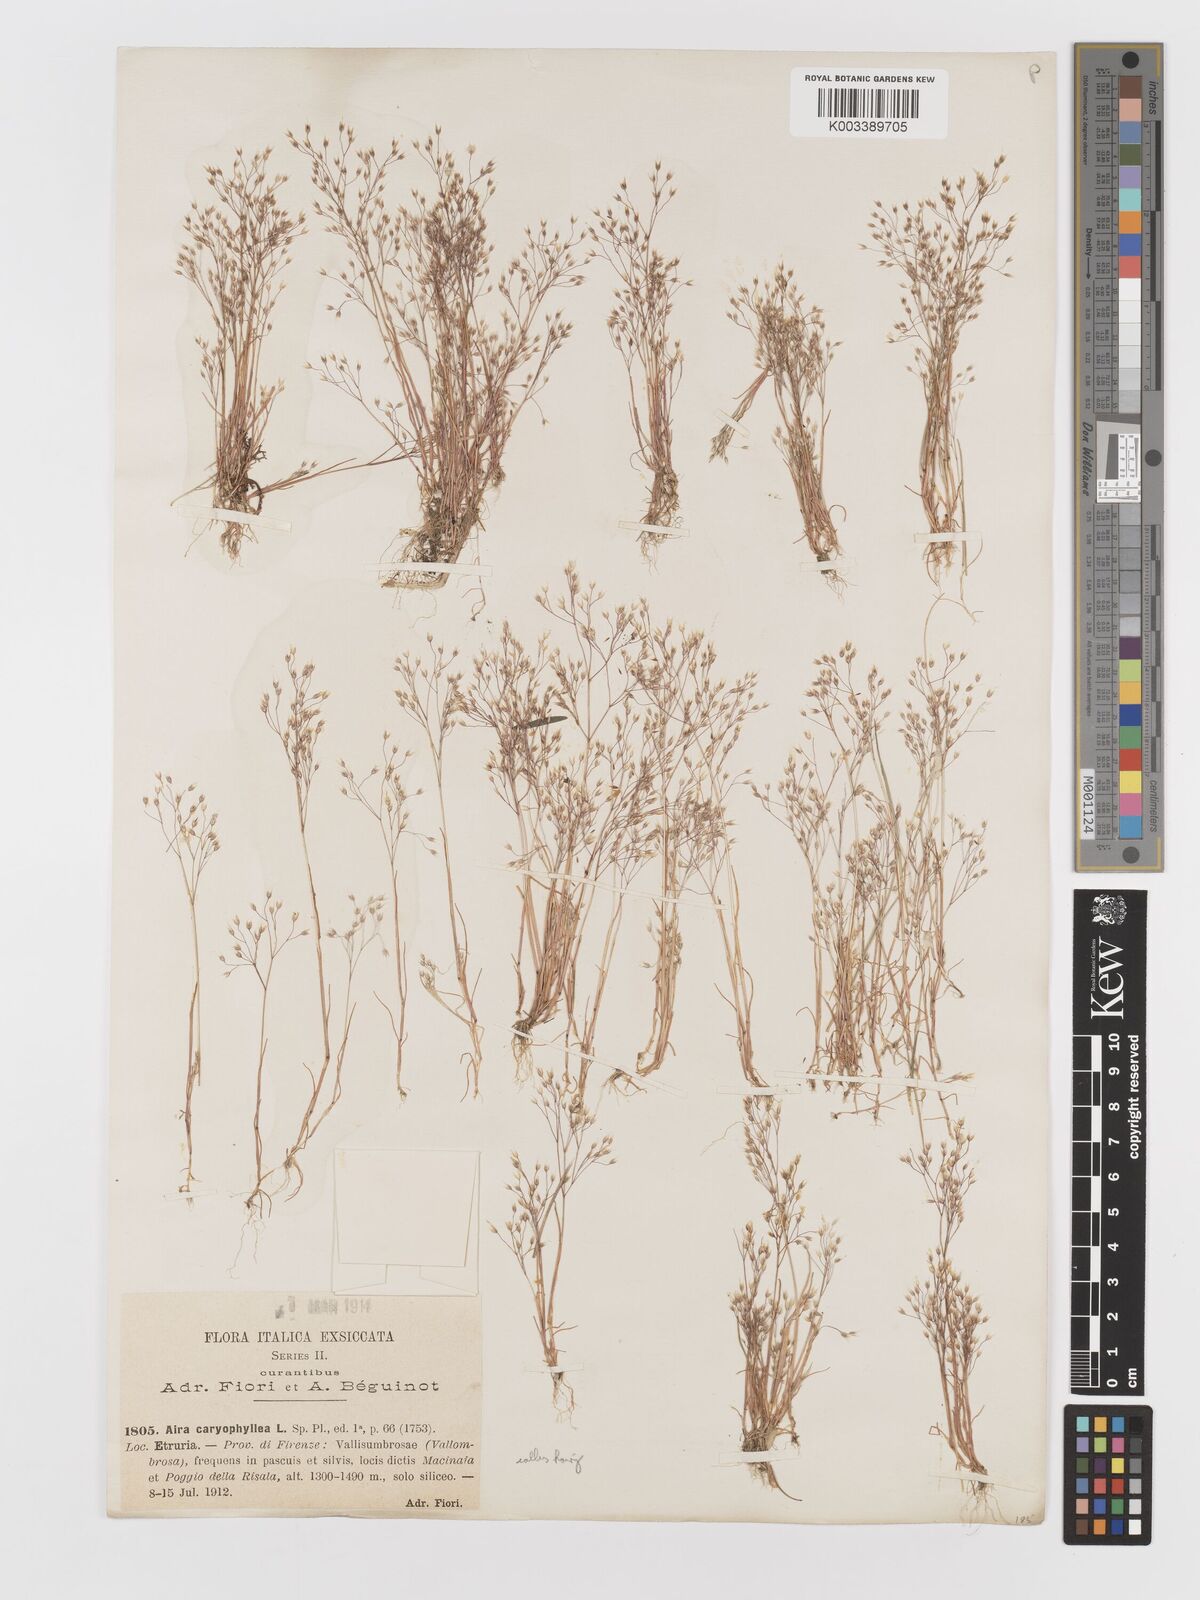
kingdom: Plantae
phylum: Tracheophyta
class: Liliopsida
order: Poales
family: Poaceae
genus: Aira
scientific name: Aira caryophyllea
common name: Silver hairgrass
